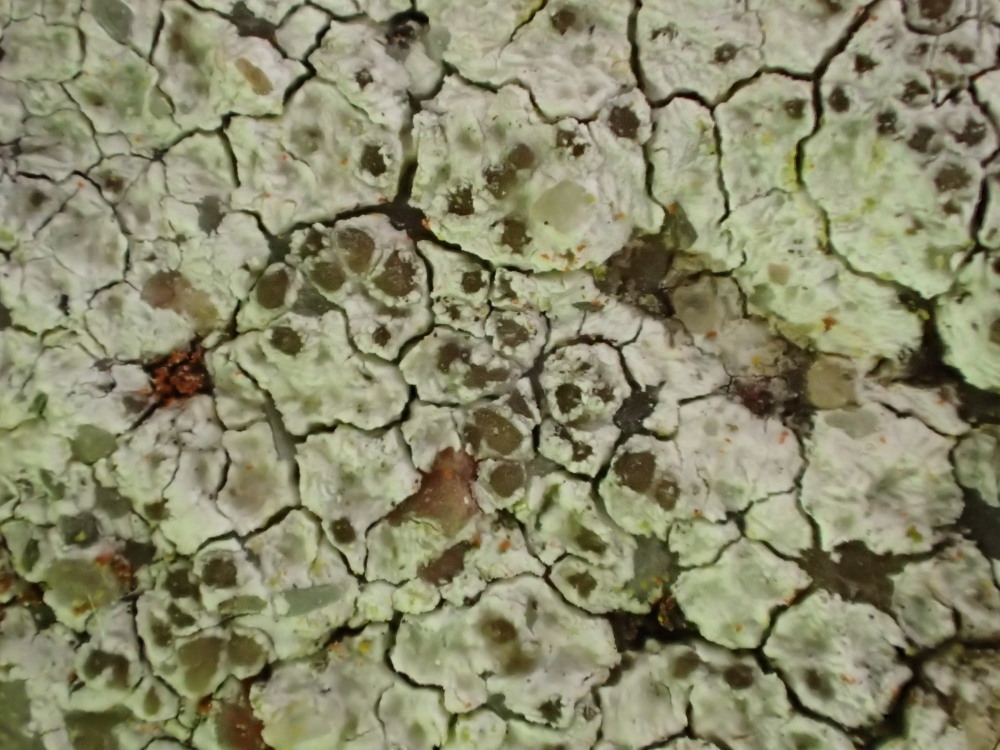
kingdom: Fungi
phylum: Ascomycota
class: Lecanoromycetes
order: Lecanorales
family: Lecanoraceae
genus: Polyozosia
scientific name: Polyozosia albescens
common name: cement-kantskivelav
